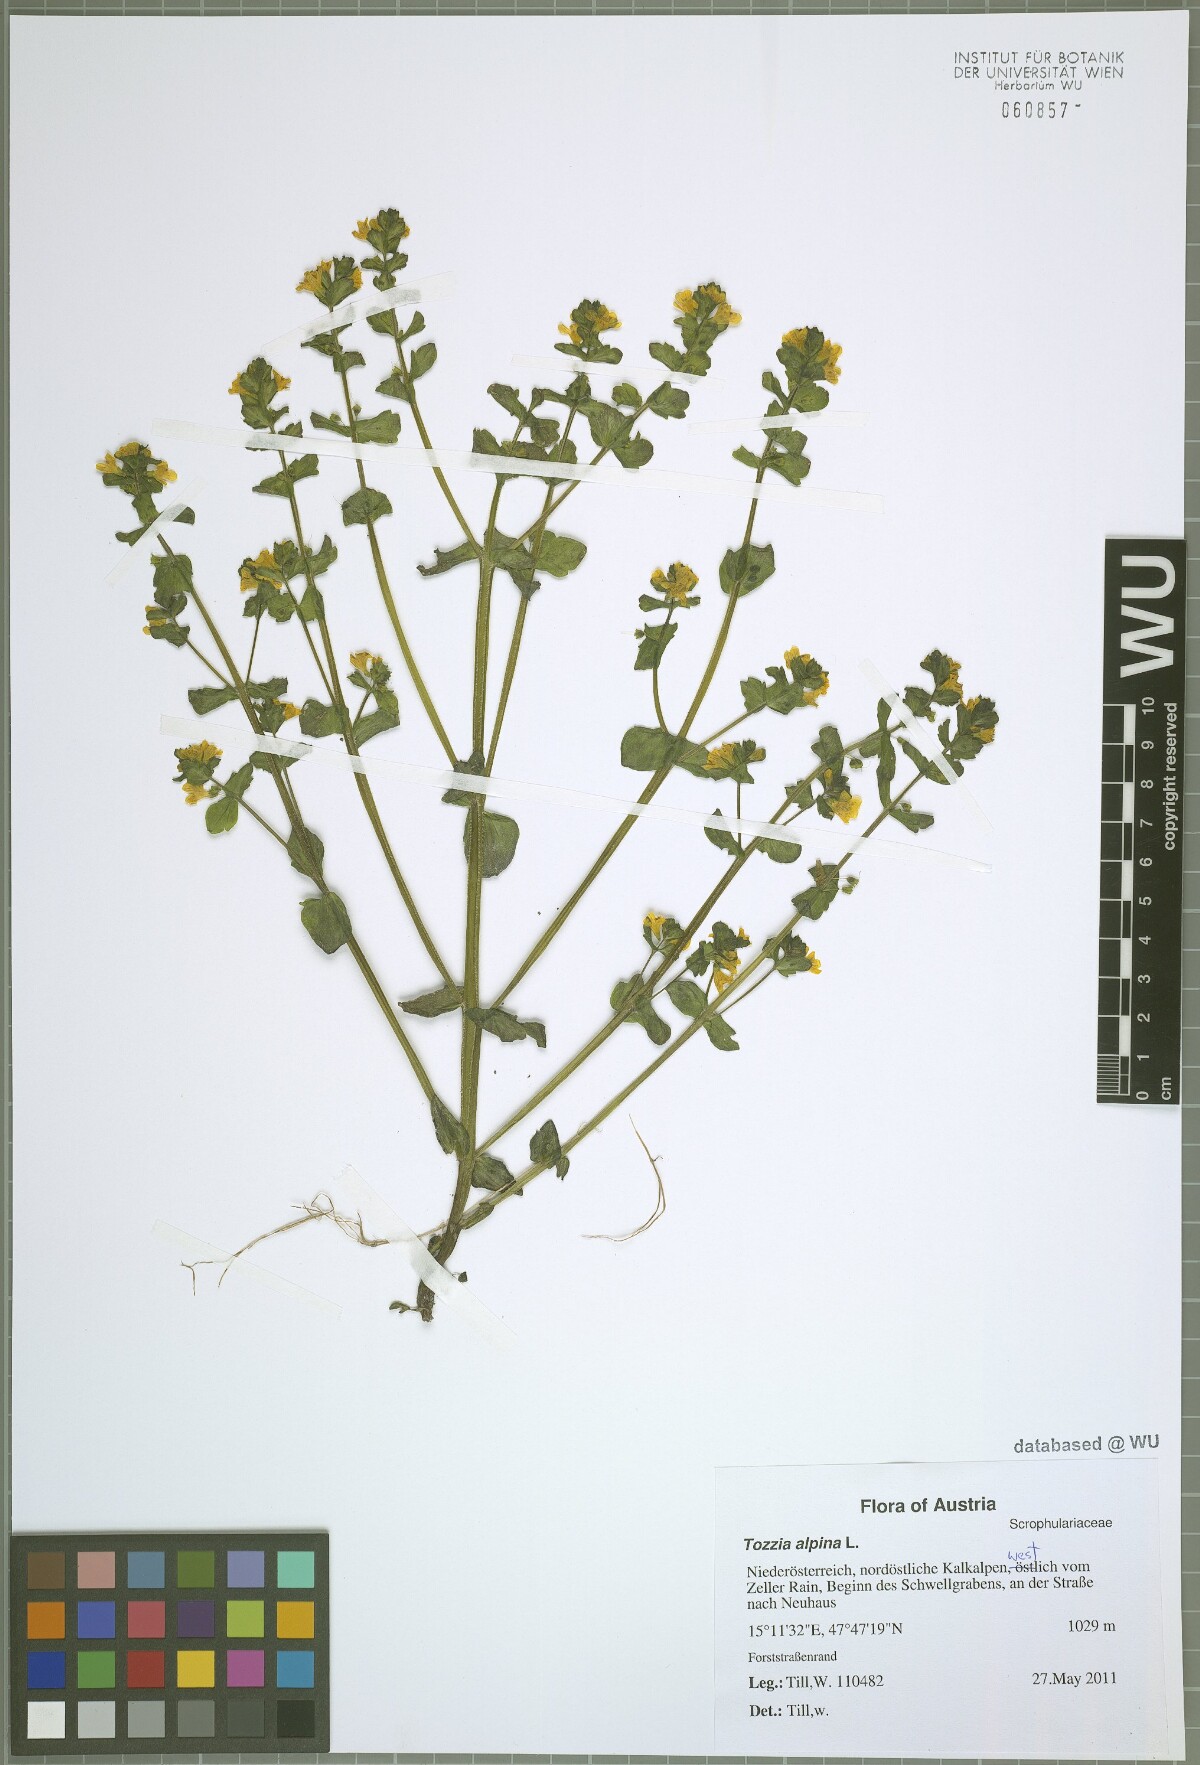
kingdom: Plantae
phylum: Tracheophyta
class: Magnoliopsida
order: Lamiales
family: Orobanchaceae
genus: Tozzia
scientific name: Tozzia alpina
